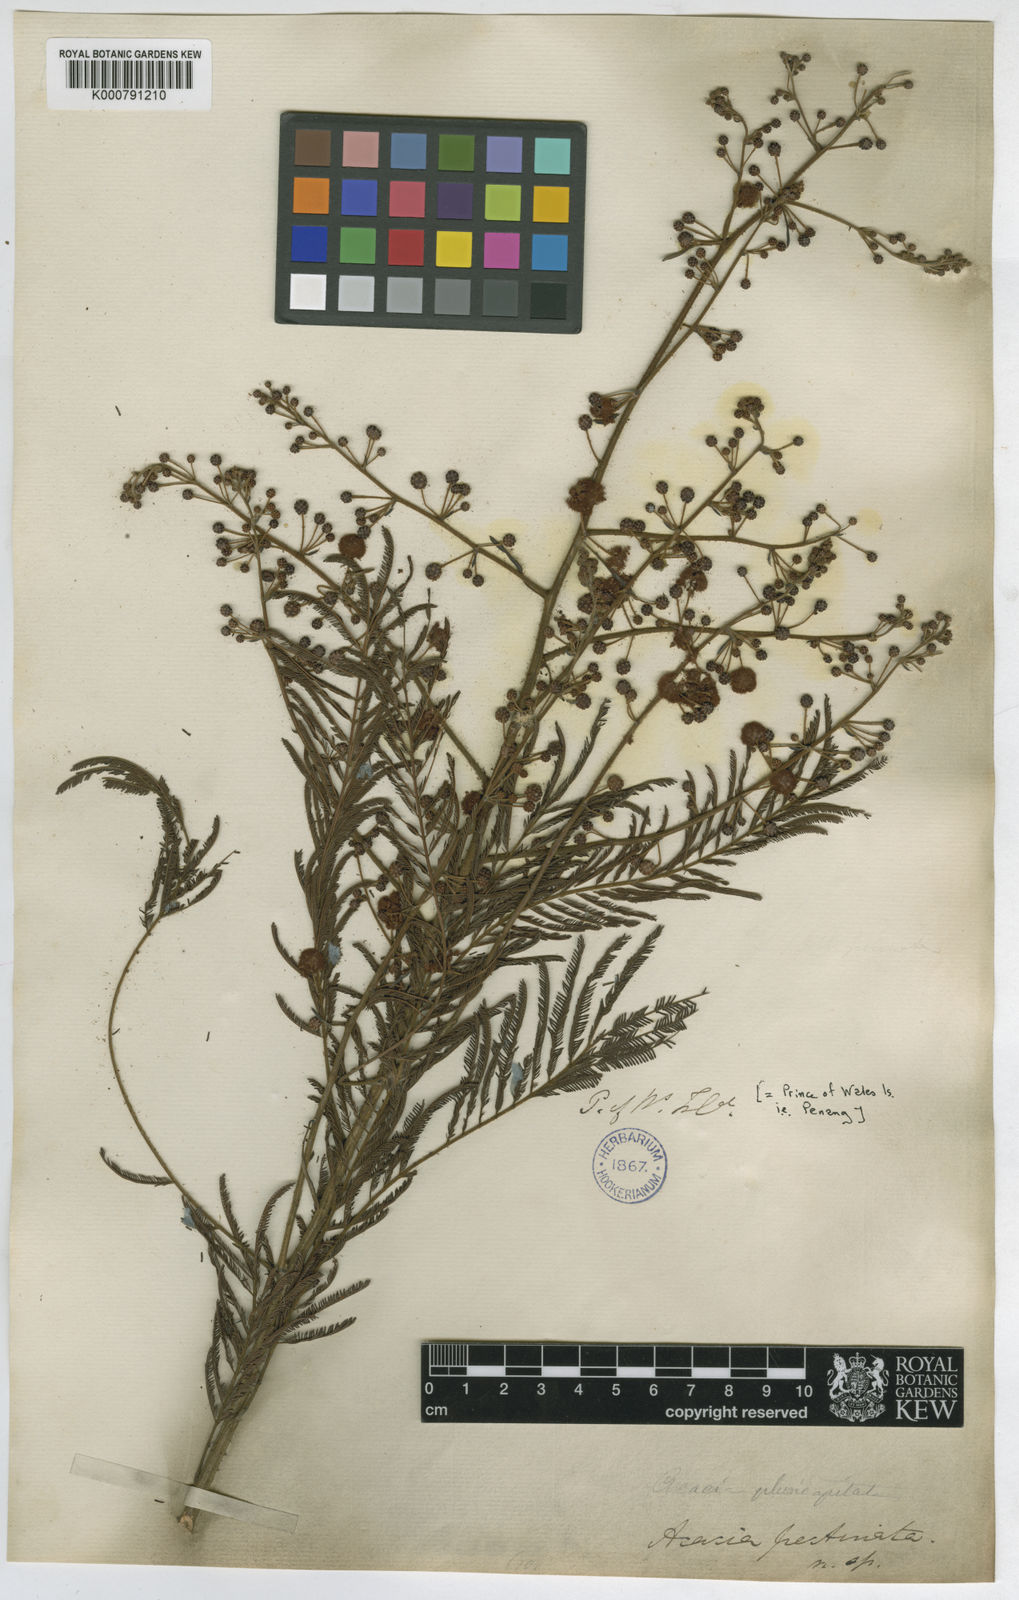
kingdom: Plantae
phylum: Tracheophyta
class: Magnoliopsida
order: Fabales
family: Fabaceae
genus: Senegalia
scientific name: Senegalia pennata
